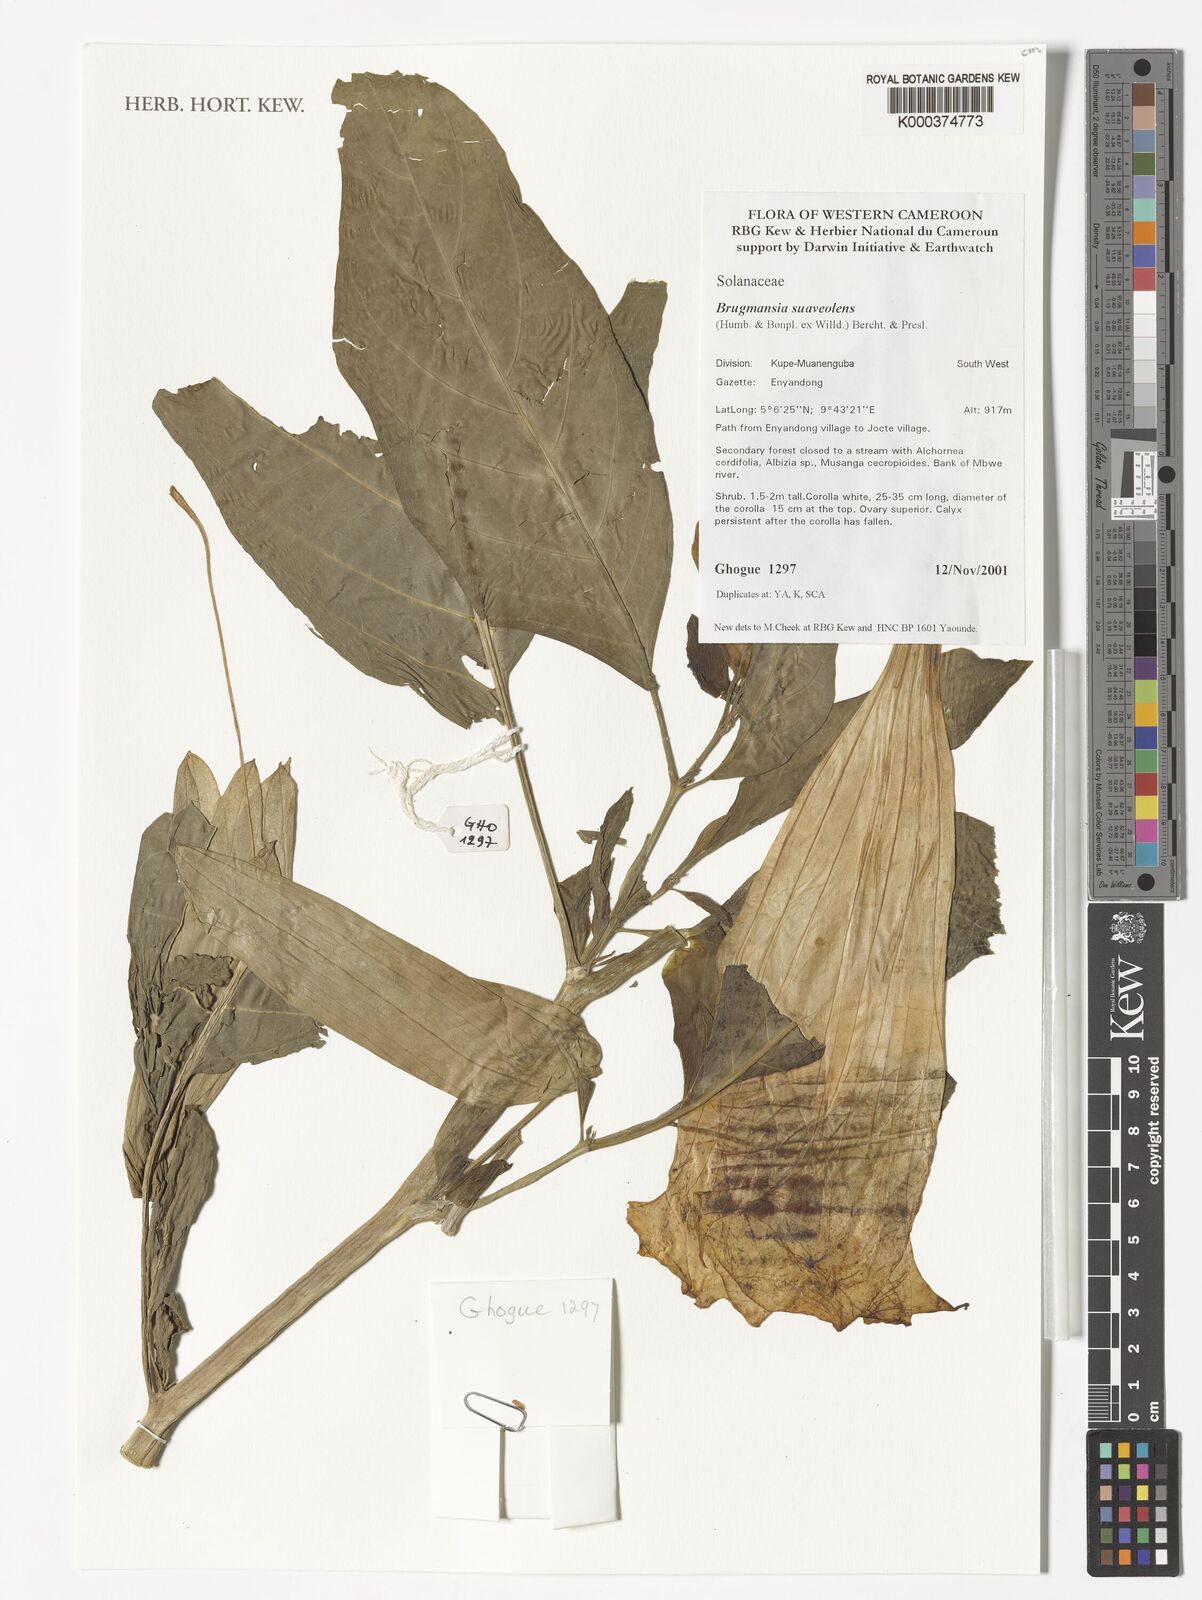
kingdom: Plantae
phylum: Tracheophyta
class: Magnoliopsida
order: Solanales
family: Solanaceae
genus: Brugmansia
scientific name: Brugmansia suaveolens
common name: Angel's tears
